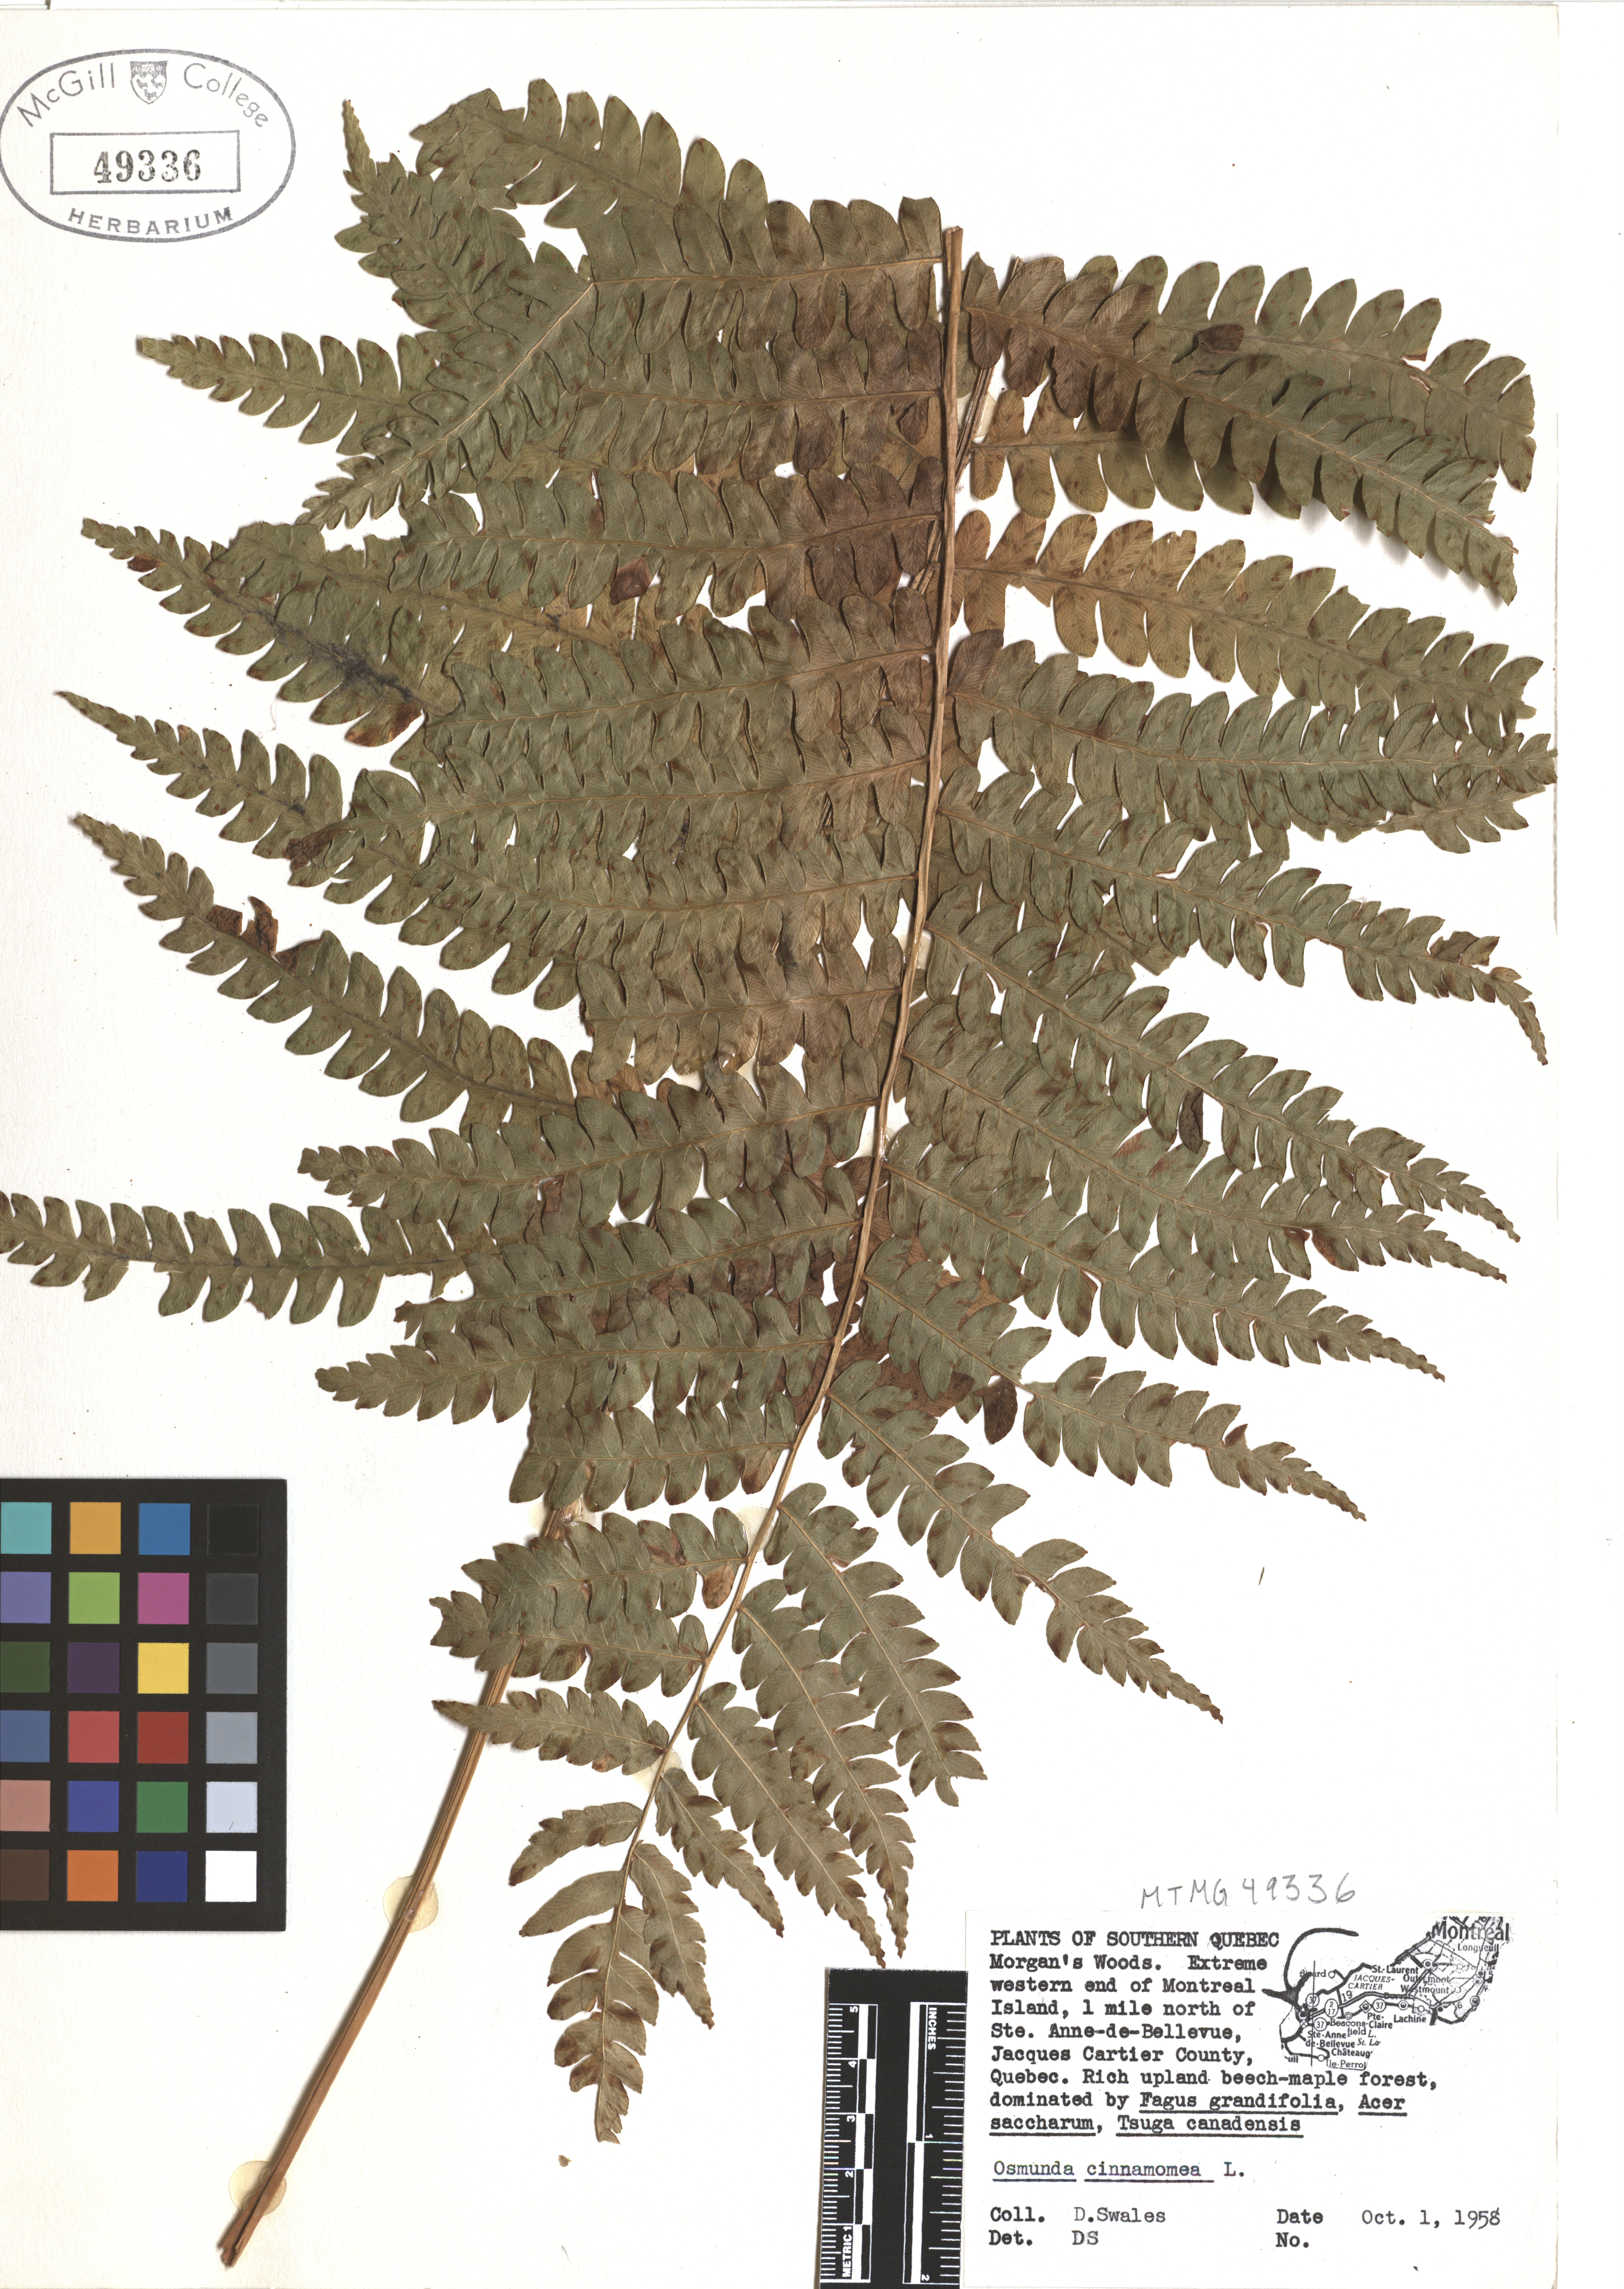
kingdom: Plantae
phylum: Tracheophyta
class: Polypodiopsida
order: Osmundales
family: Osmundaceae
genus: Osmundastrum
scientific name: Osmundastrum cinnamomeum
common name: Cinnamon fern
